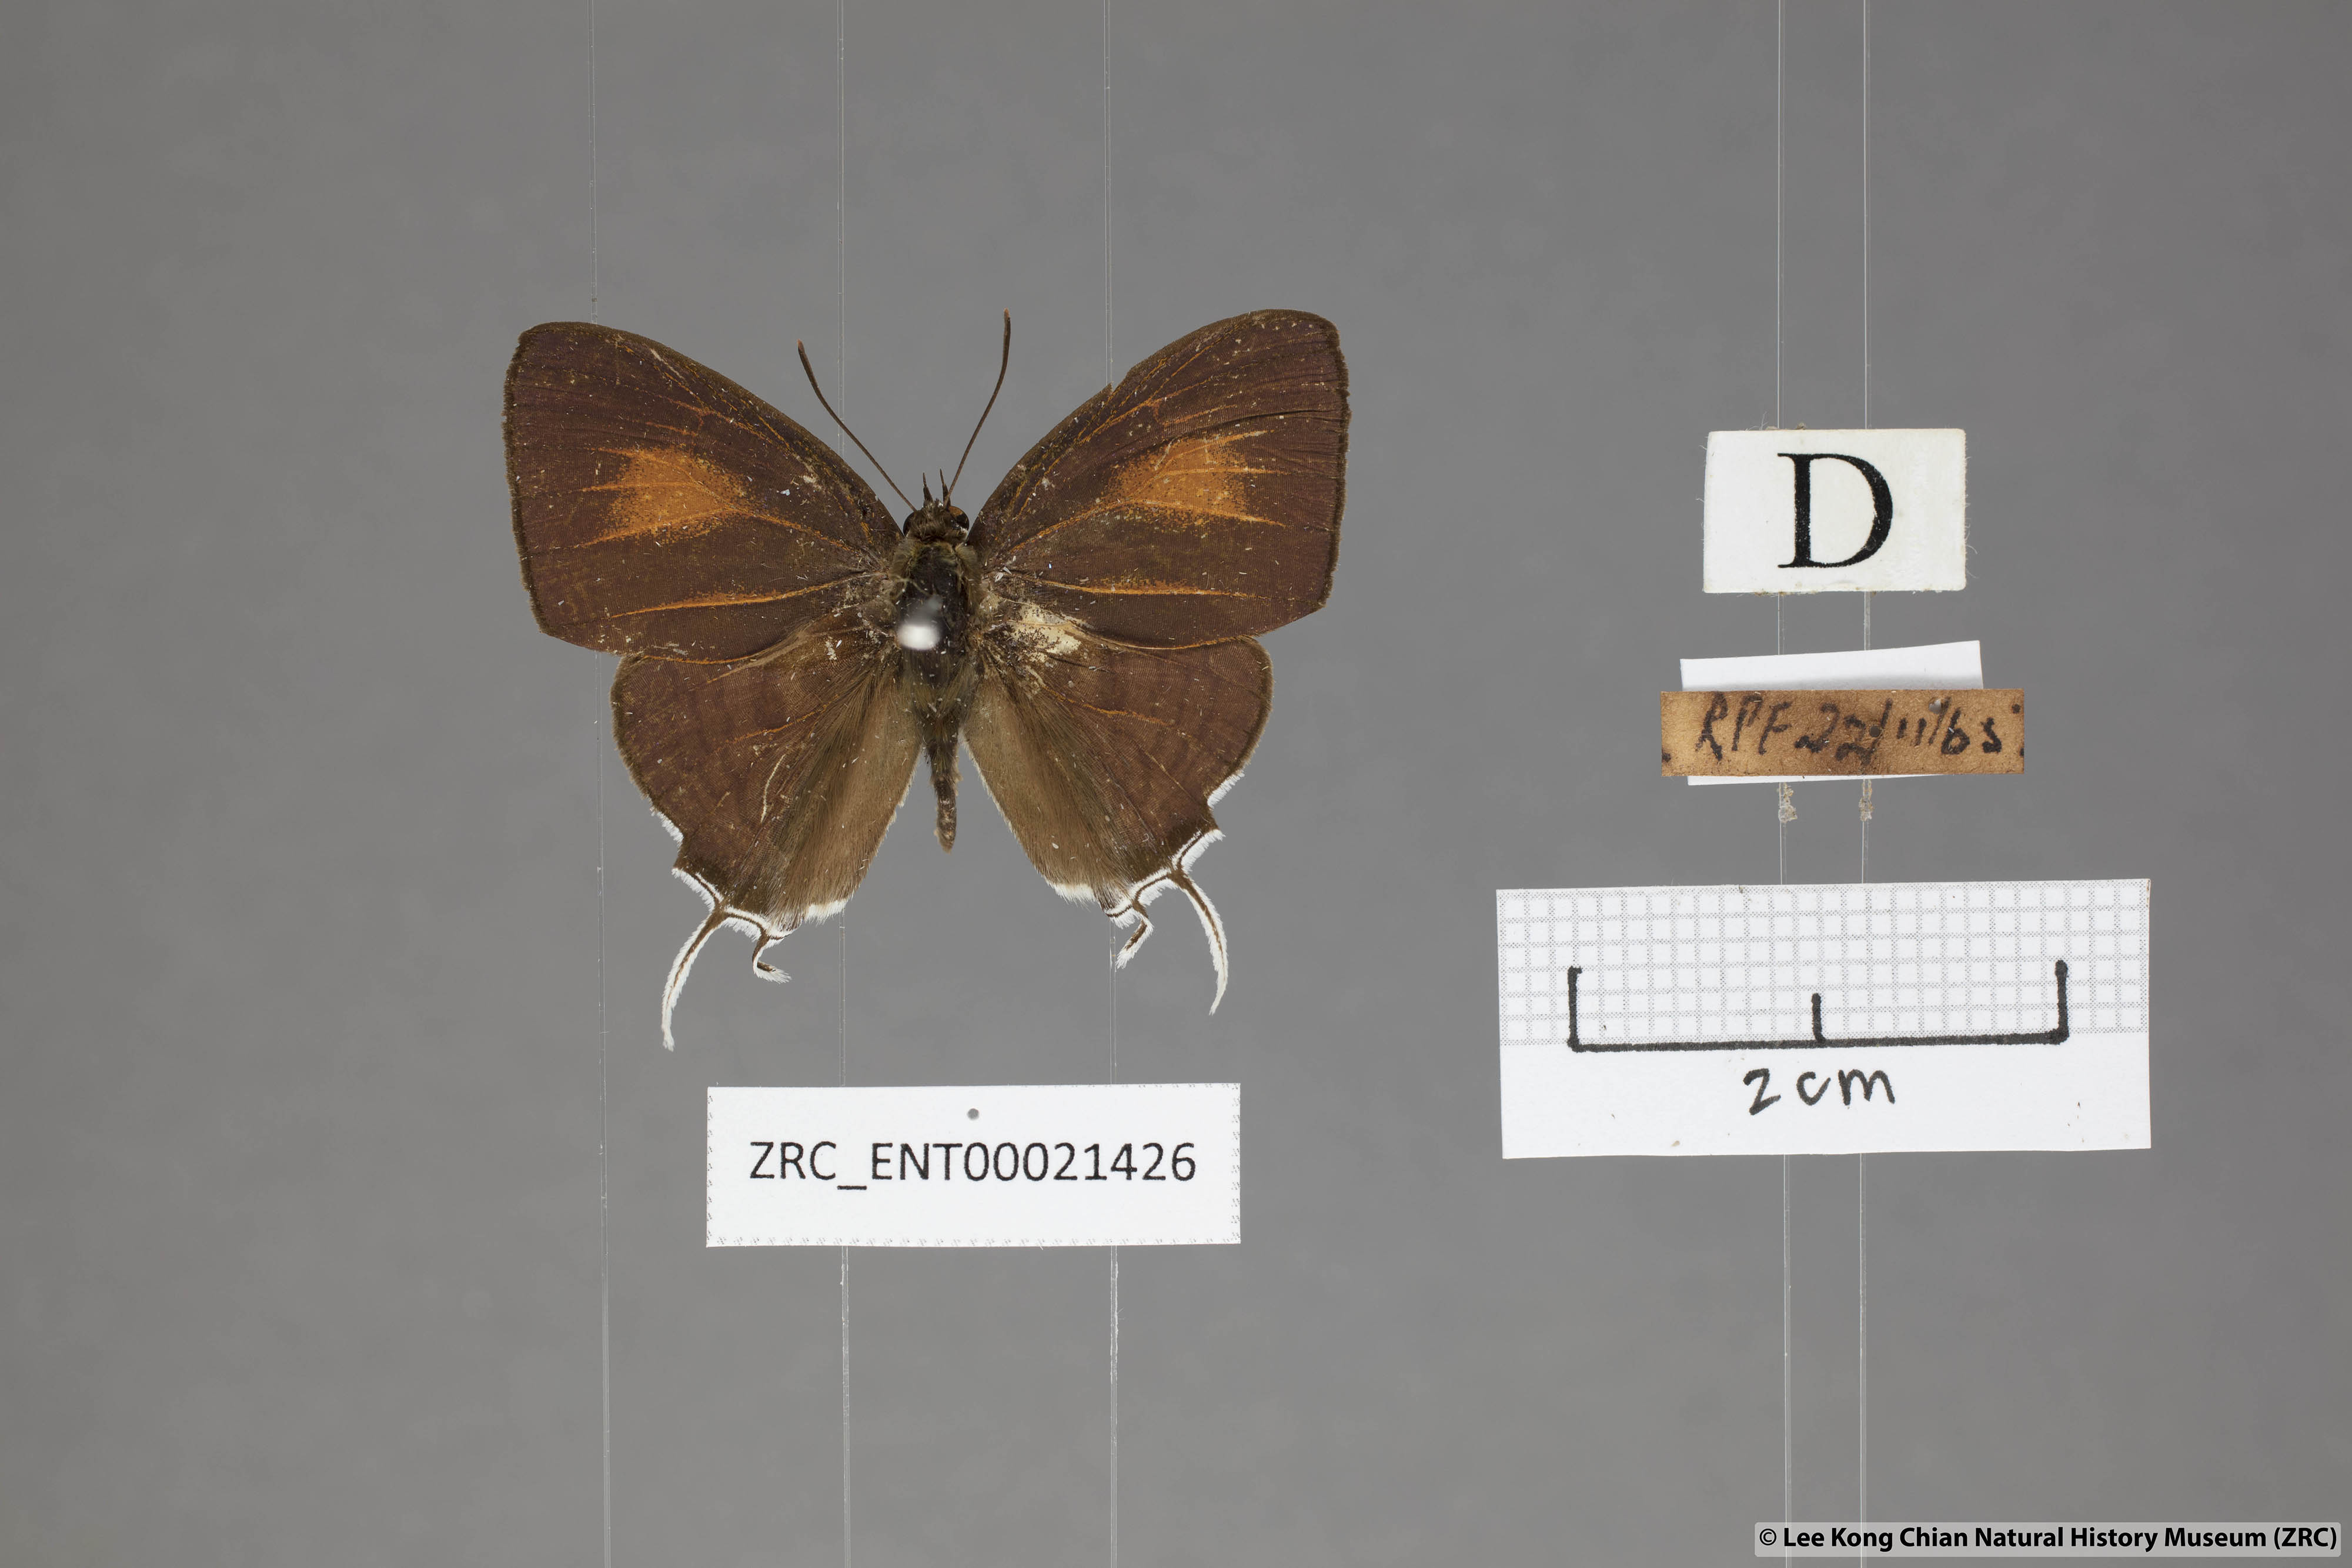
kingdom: Animalia
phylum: Arthropoda
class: Insecta
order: Lepidoptera
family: Lycaenidae
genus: Drupadia
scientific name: Drupadia theda
